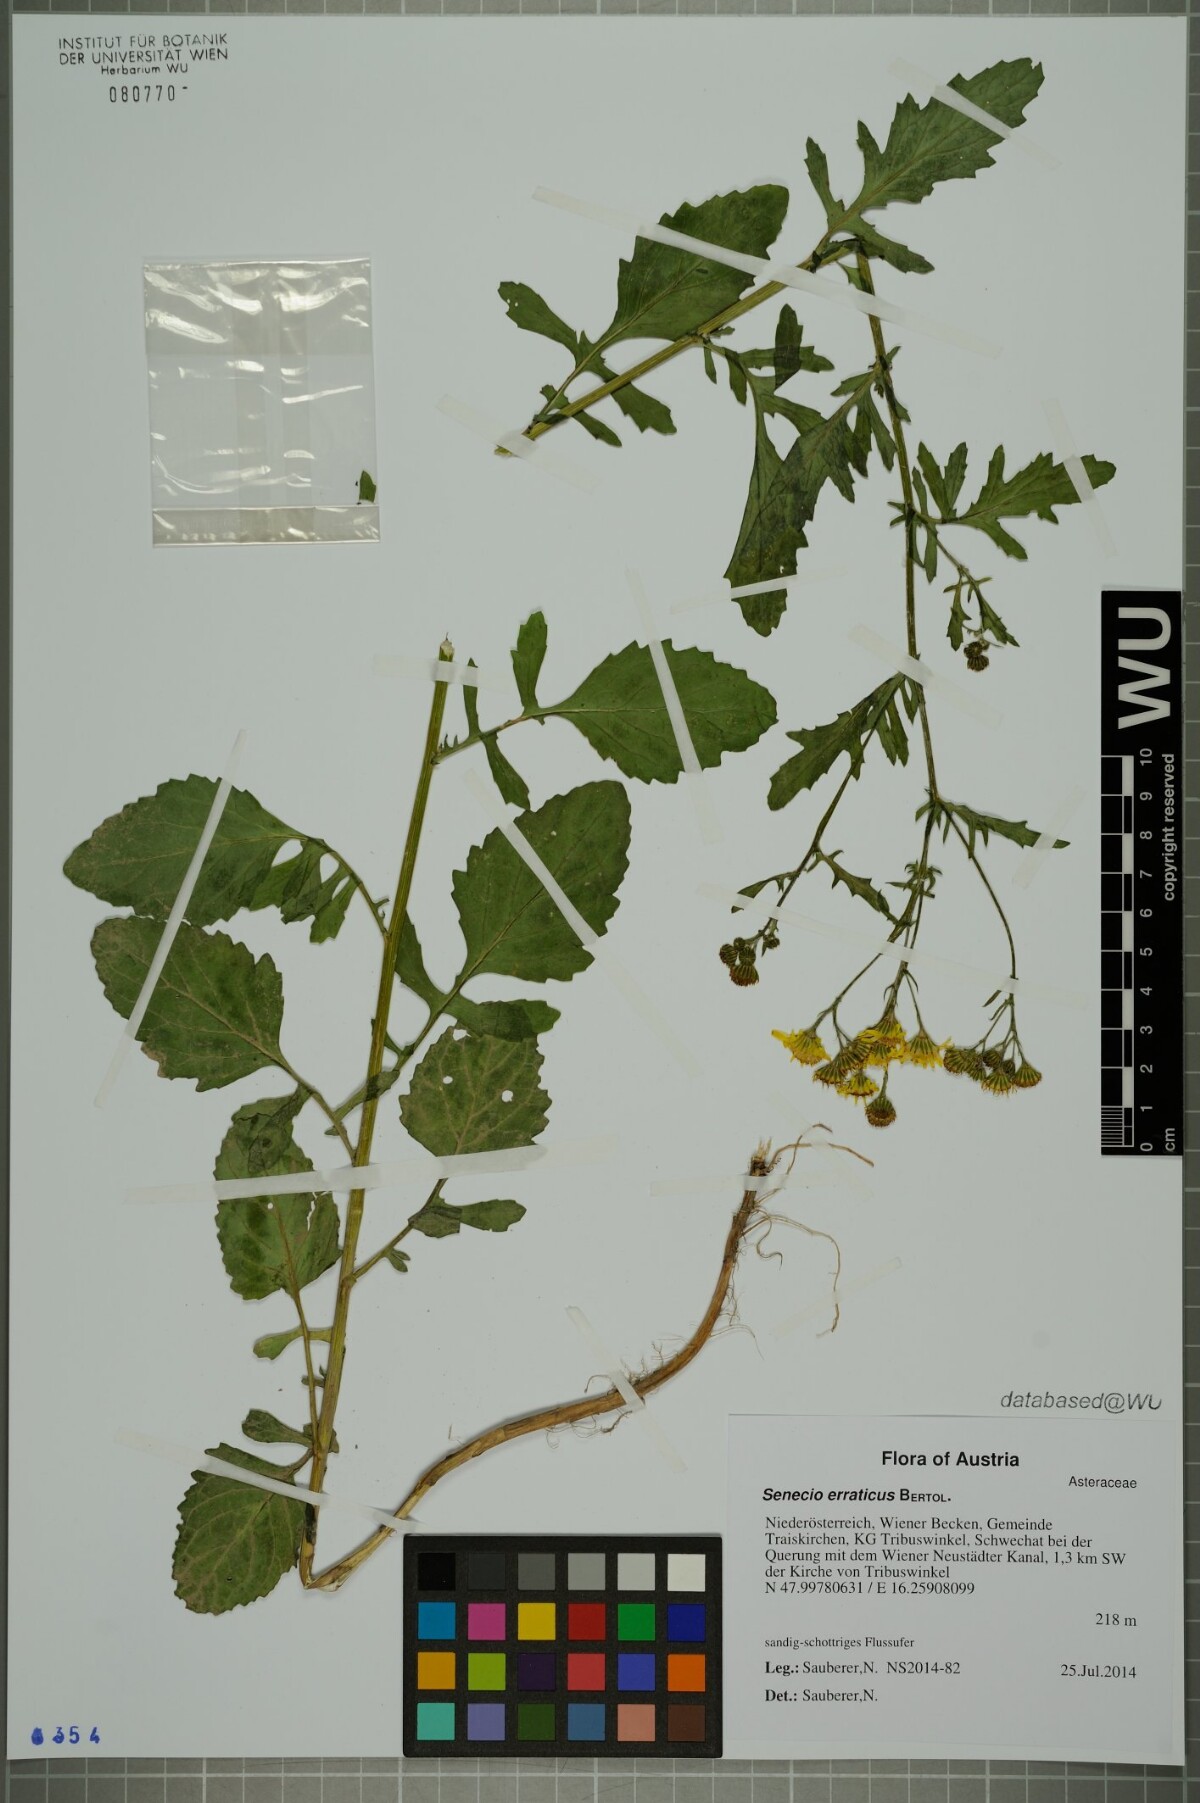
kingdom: Plantae
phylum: Tracheophyta
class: Magnoliopsida
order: Asterales
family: Asteraceae
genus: Jacobaea
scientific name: Jacobaea erratica
